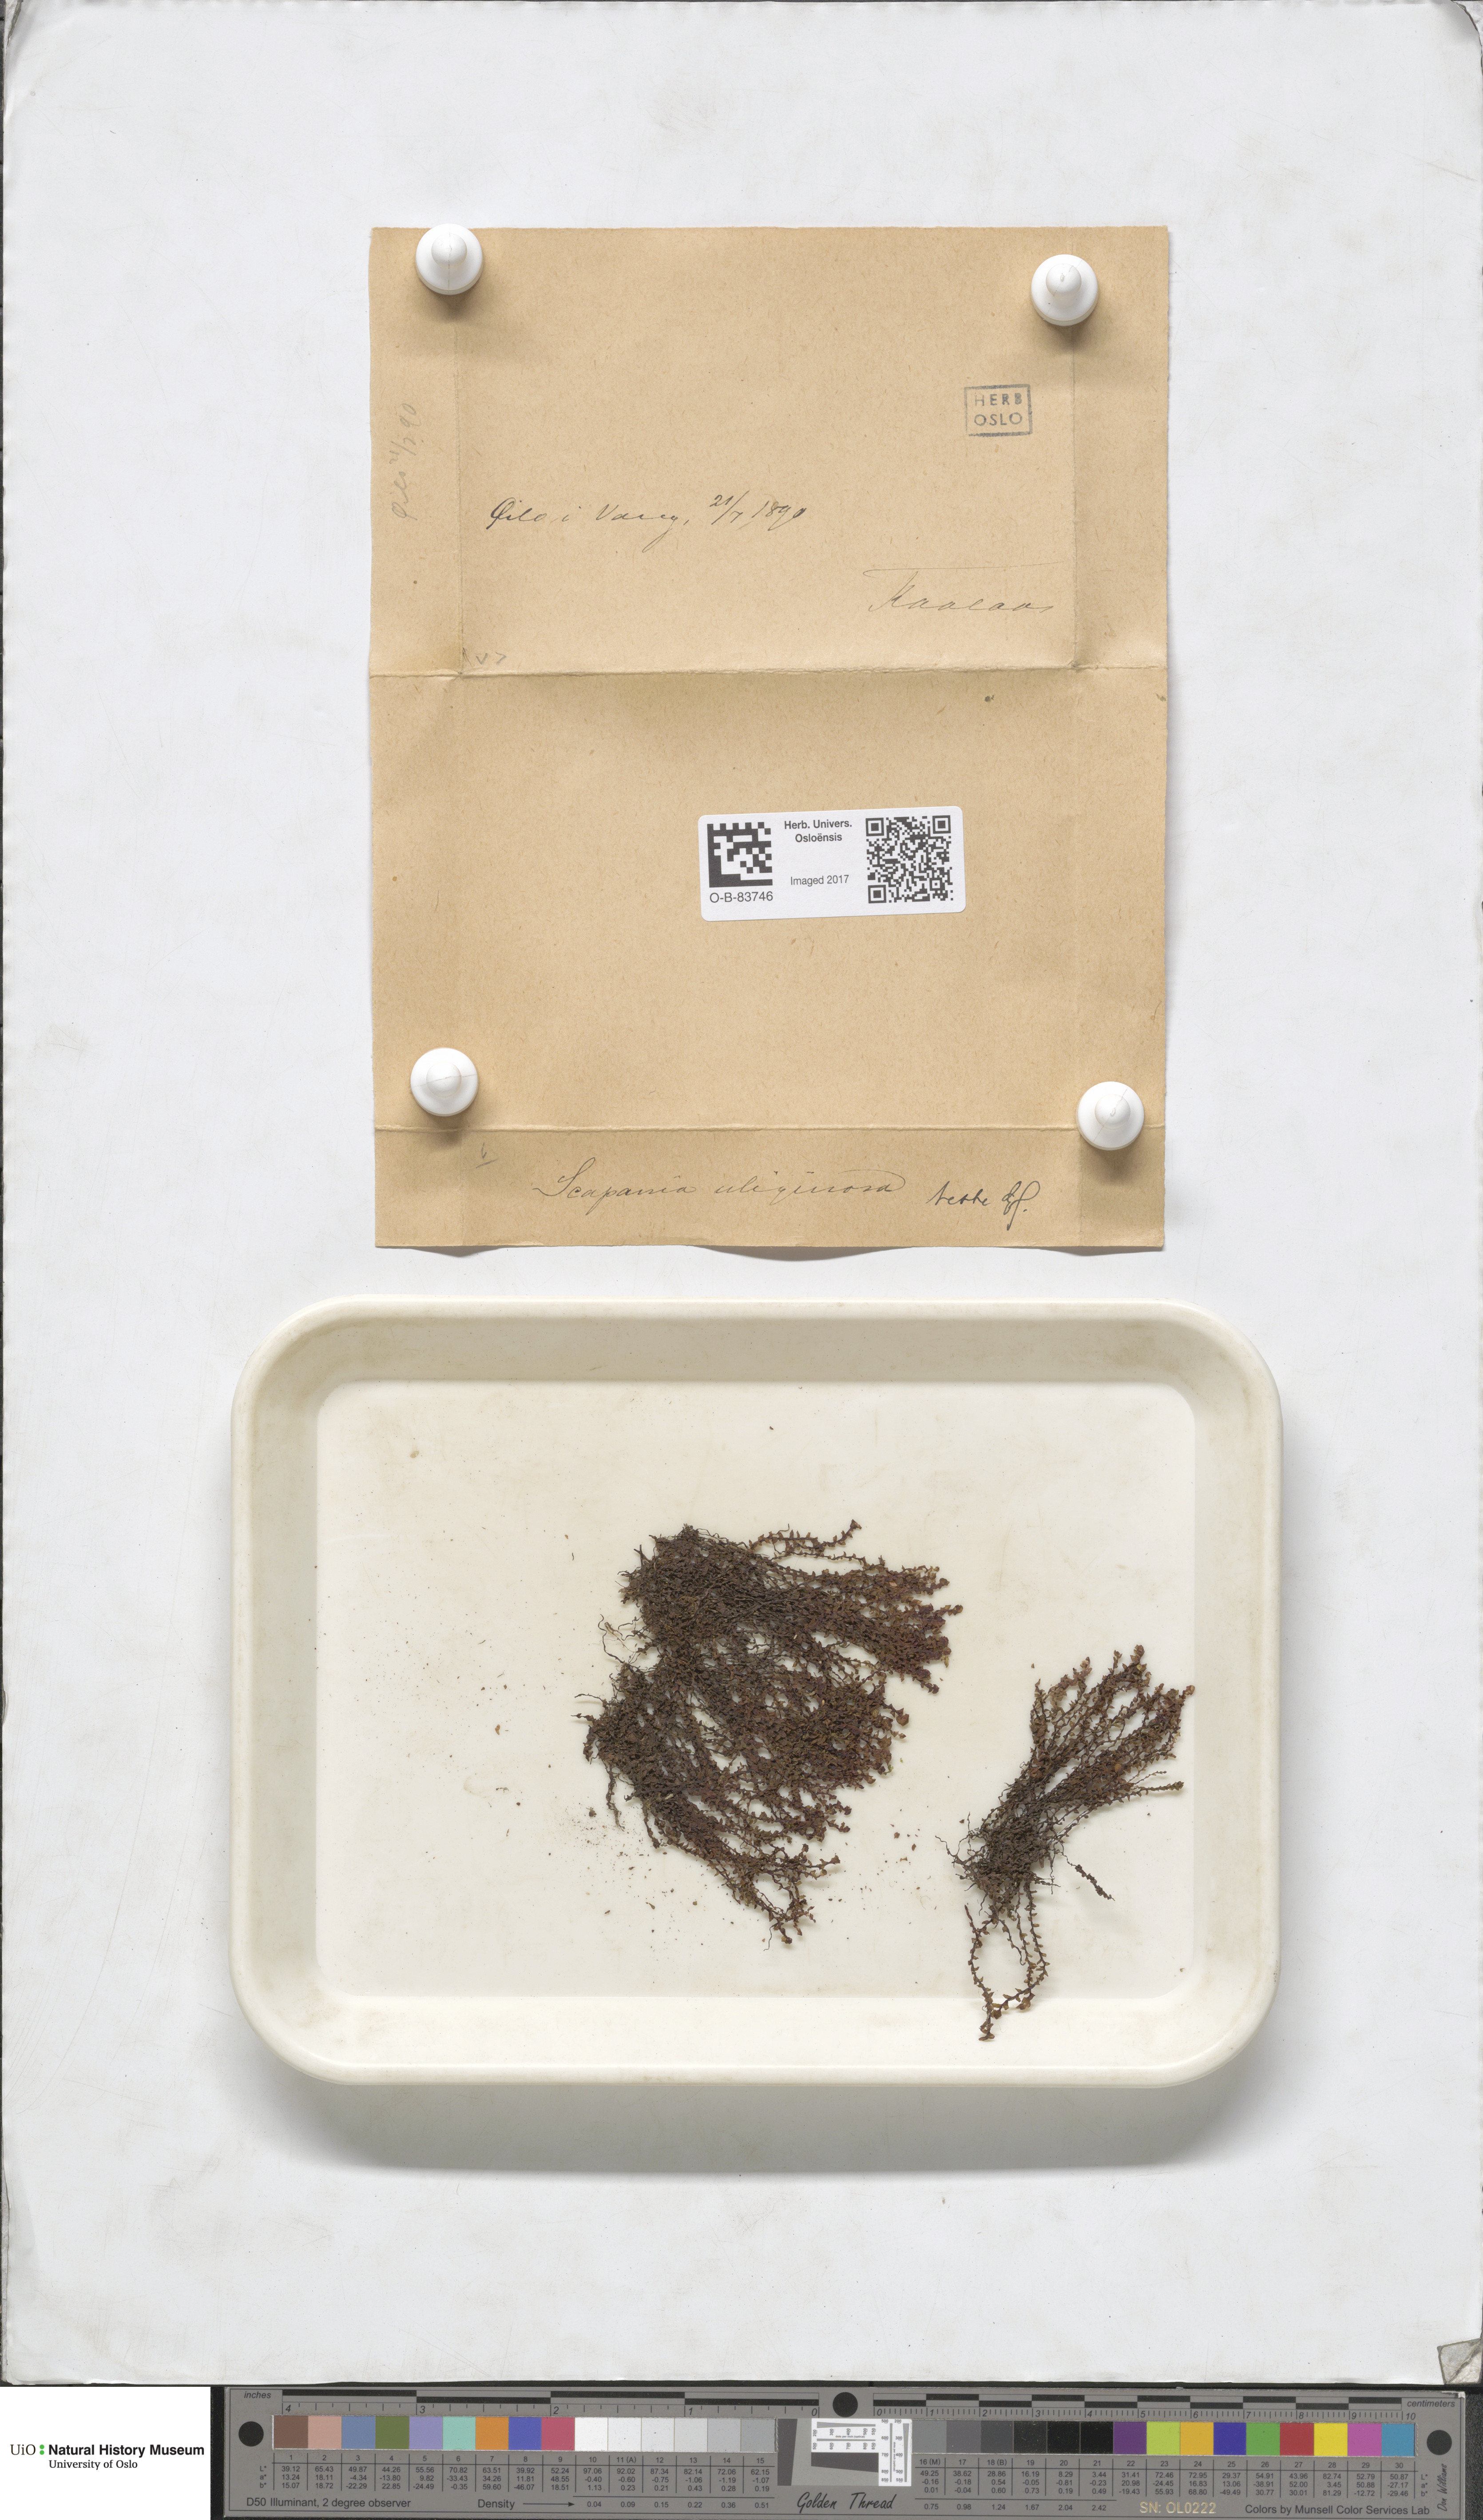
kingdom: Plantae
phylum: Marchantiophyta
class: Jungermanniopsida
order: Jungermanniales
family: Scapaniaceae
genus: Scapania
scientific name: Scapania uliginosa
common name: Marsh earwort
